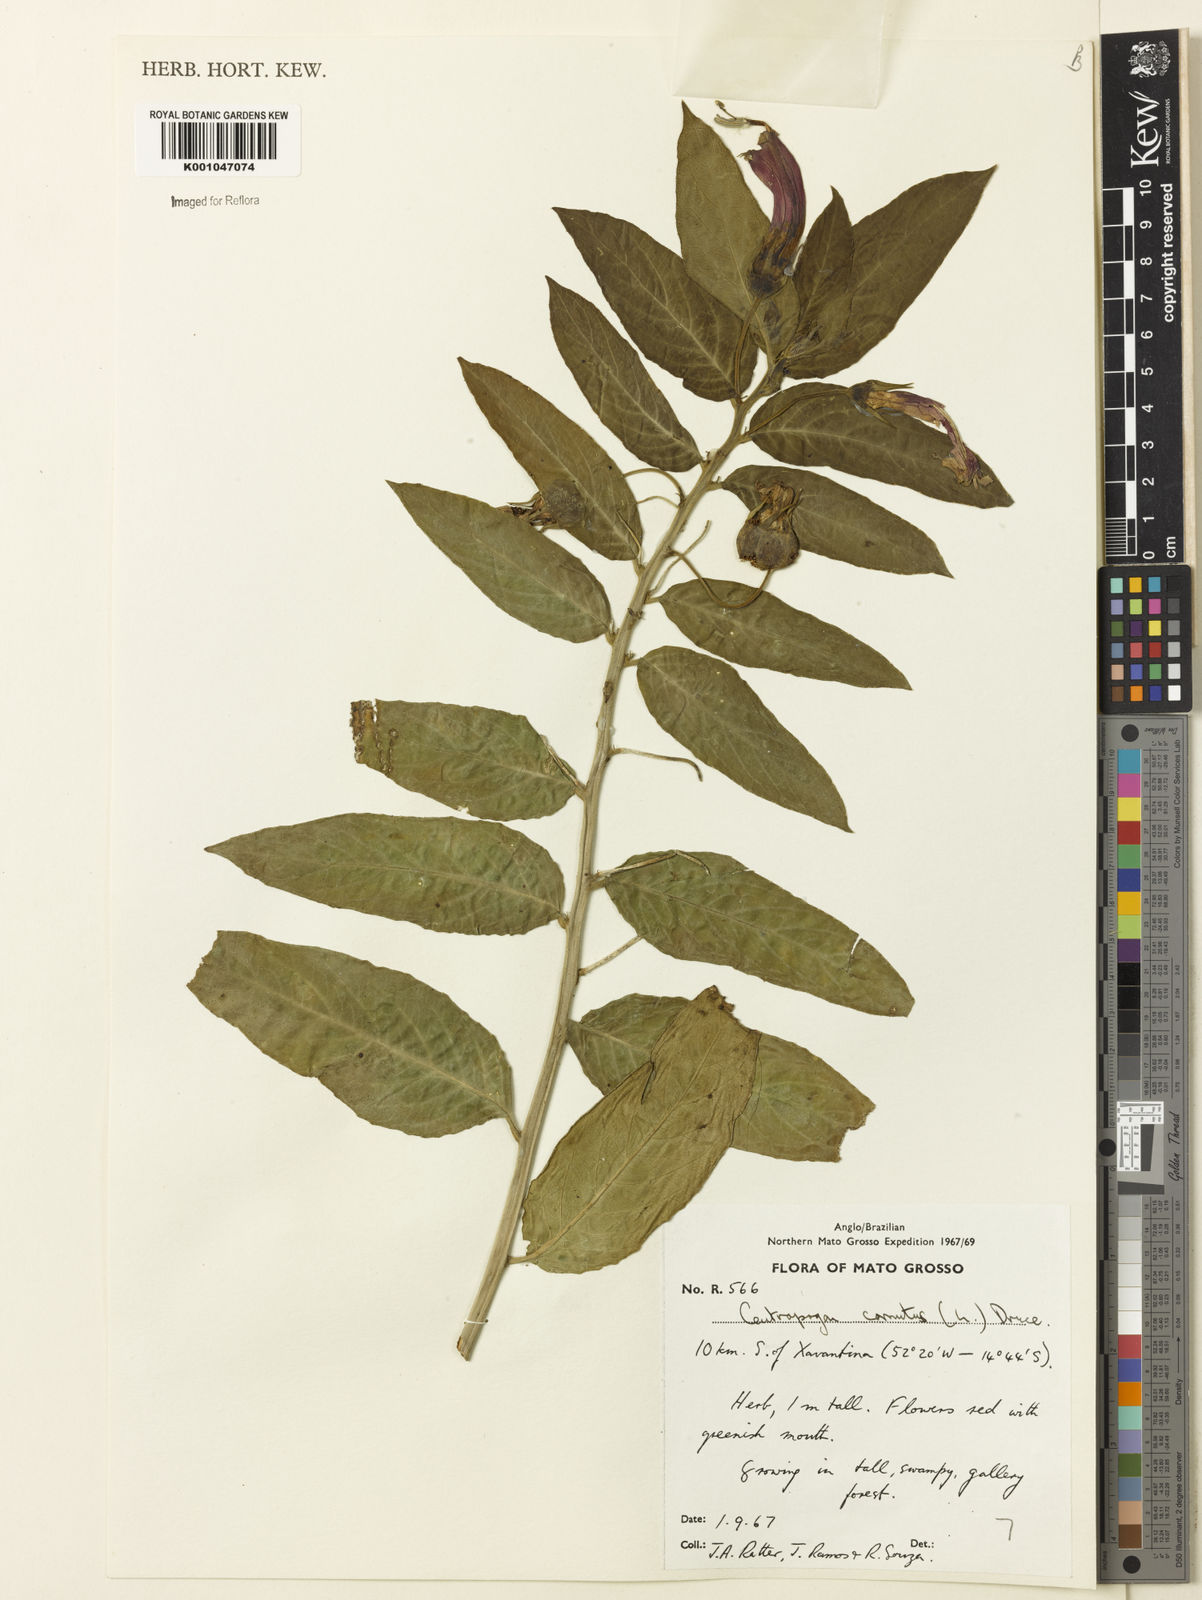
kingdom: Plantae
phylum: Tracheophyta
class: Magnoliopsida
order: Asterales
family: Campanulaceae
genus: Centropogon
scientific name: Centropogon cornutus
